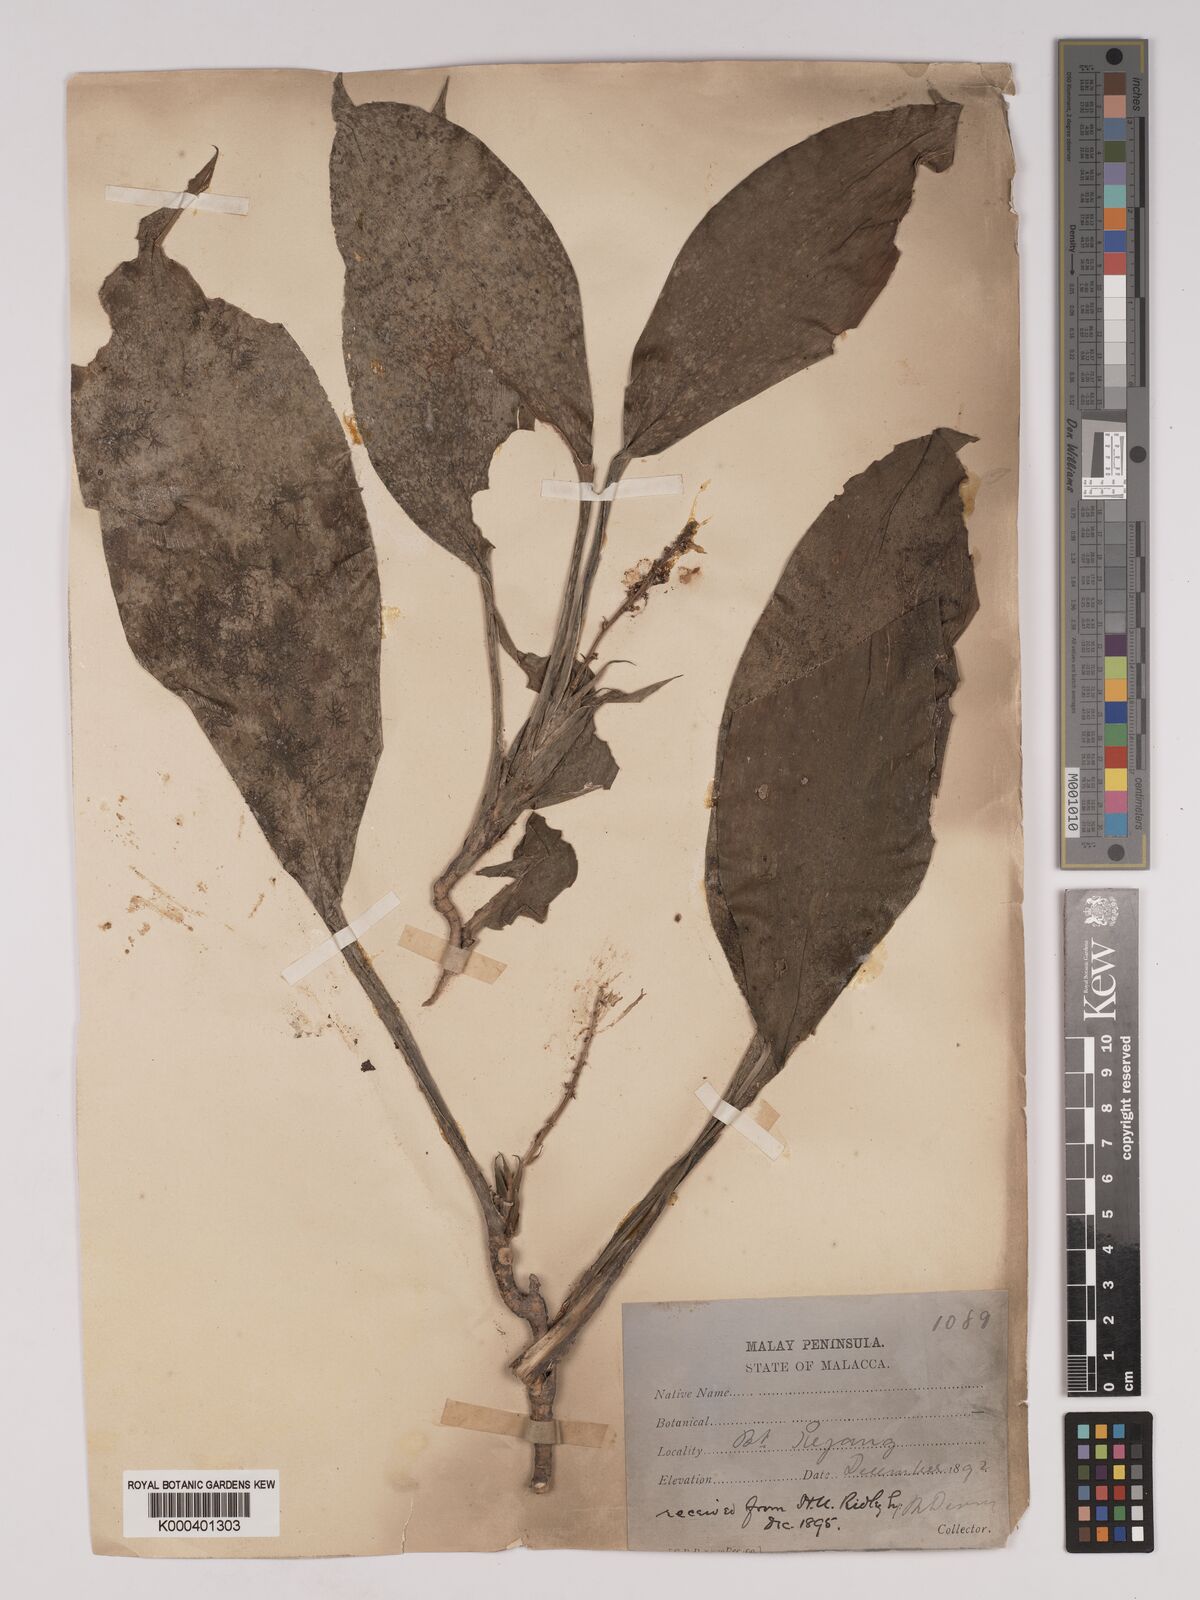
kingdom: Plantae
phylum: Tracheophyta
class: Liliopsida
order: Asparagales
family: Asparagaceae
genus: Dracaena
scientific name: Dracaena chiniana
